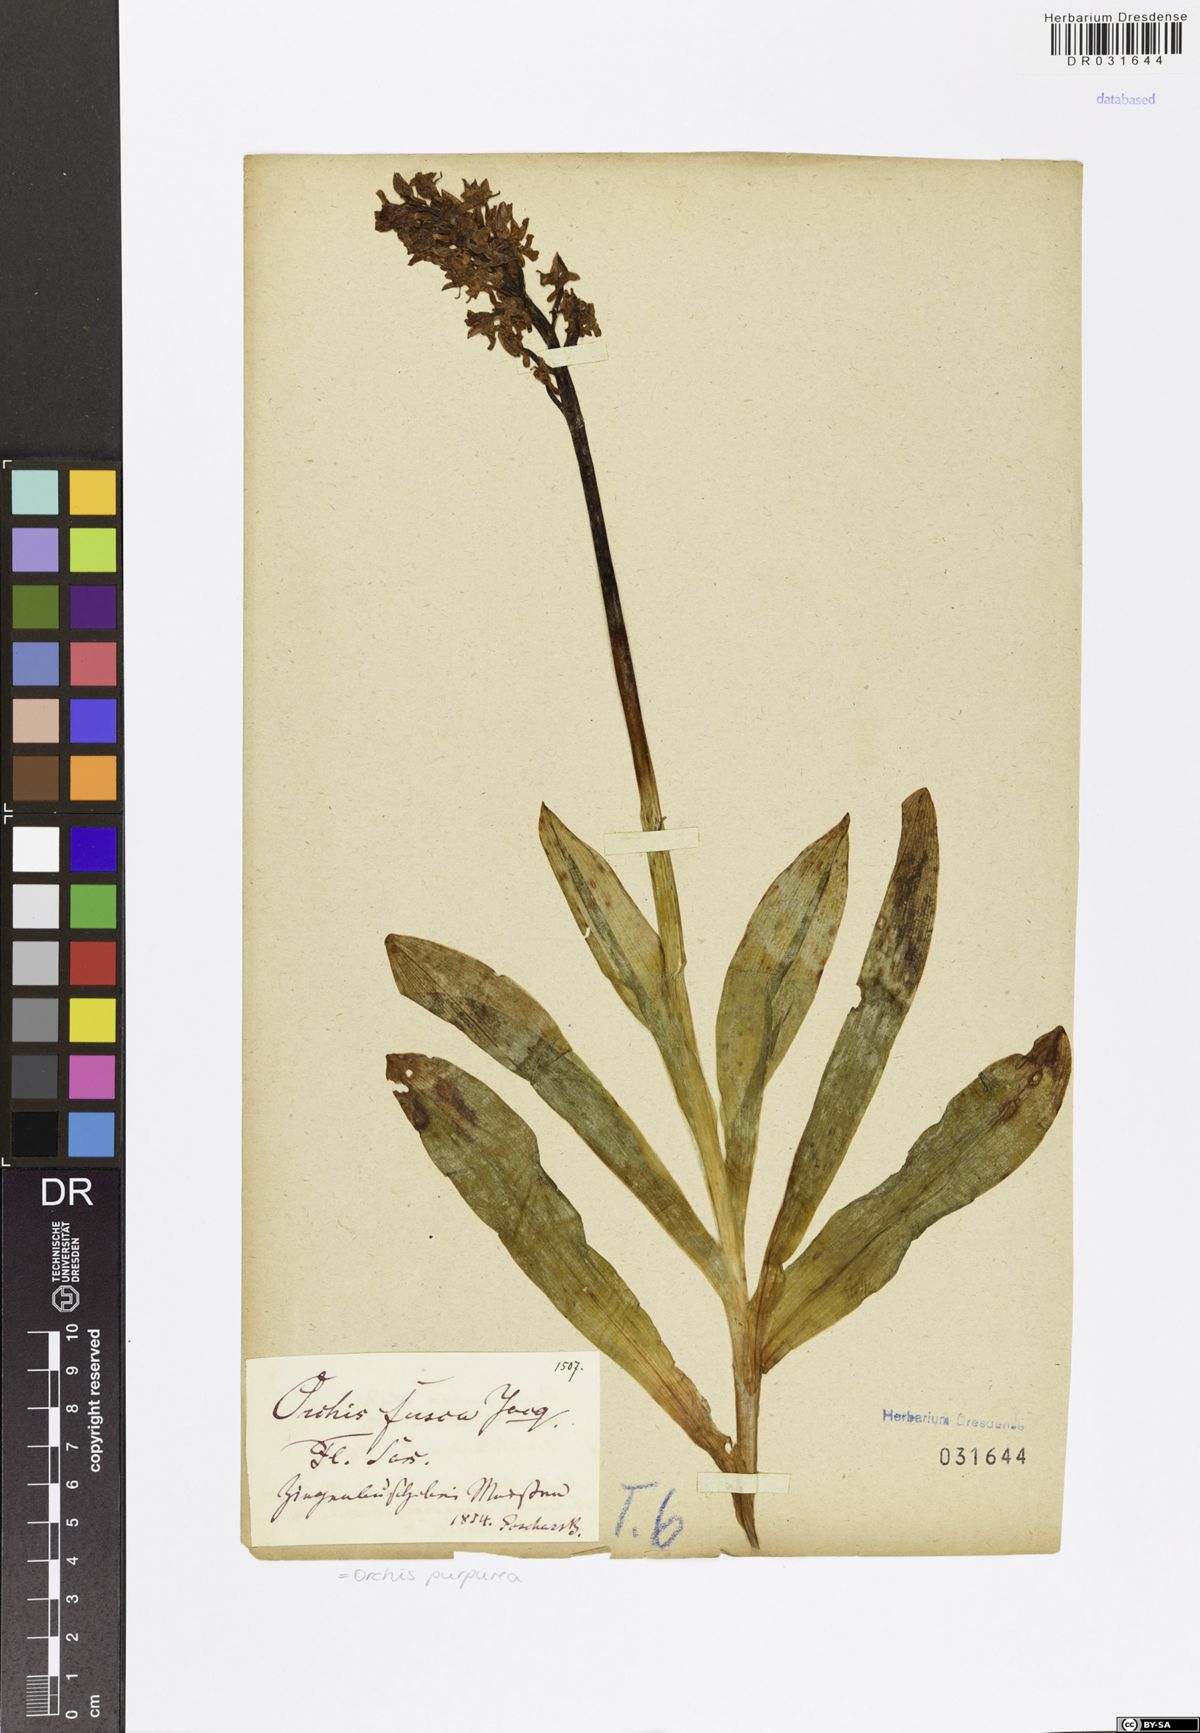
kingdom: Plantae
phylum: Tracheophyta
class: Liliopsida
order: Asparagales
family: Orchidaceae
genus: Orchis
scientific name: Orchis purpurea
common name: Lady orchid
